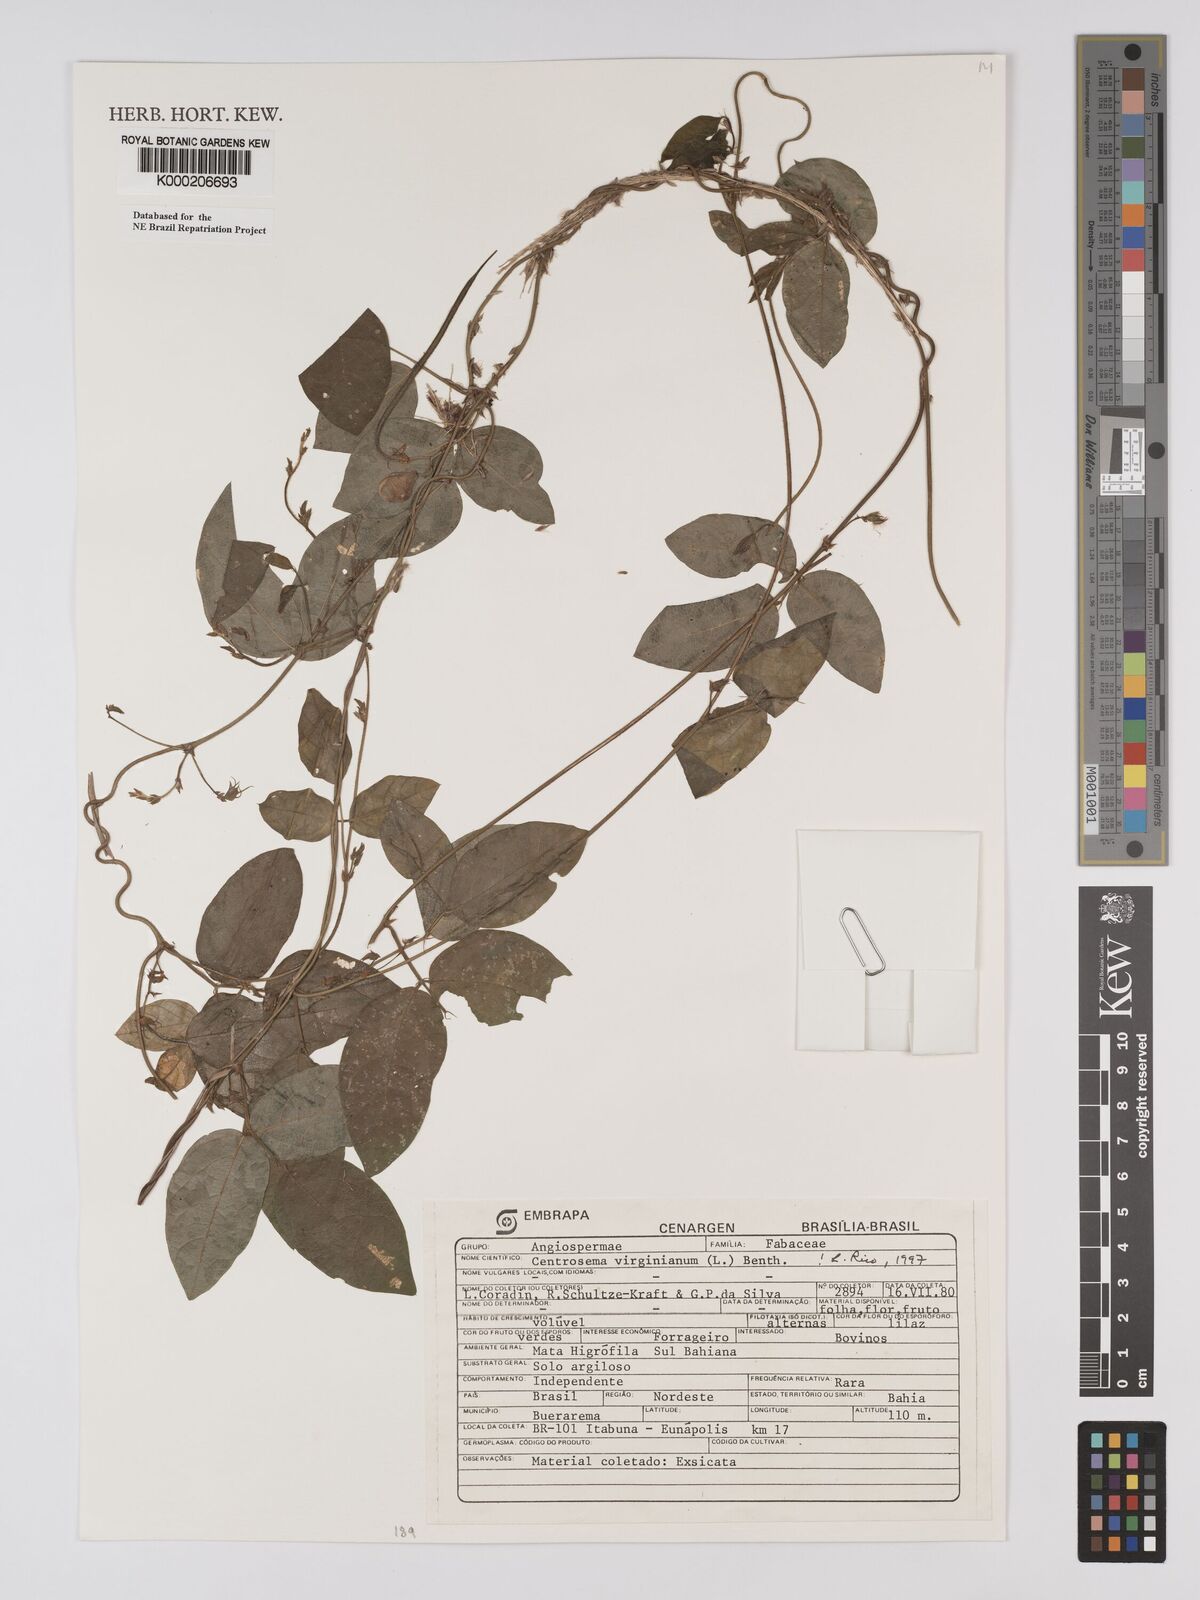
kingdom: Plantae
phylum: Tracheophyta
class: Magnoliopsida
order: Fabales
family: Fabaceae
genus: Centrosema
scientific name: Centrosema virginianum
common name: Butterfly-pea
